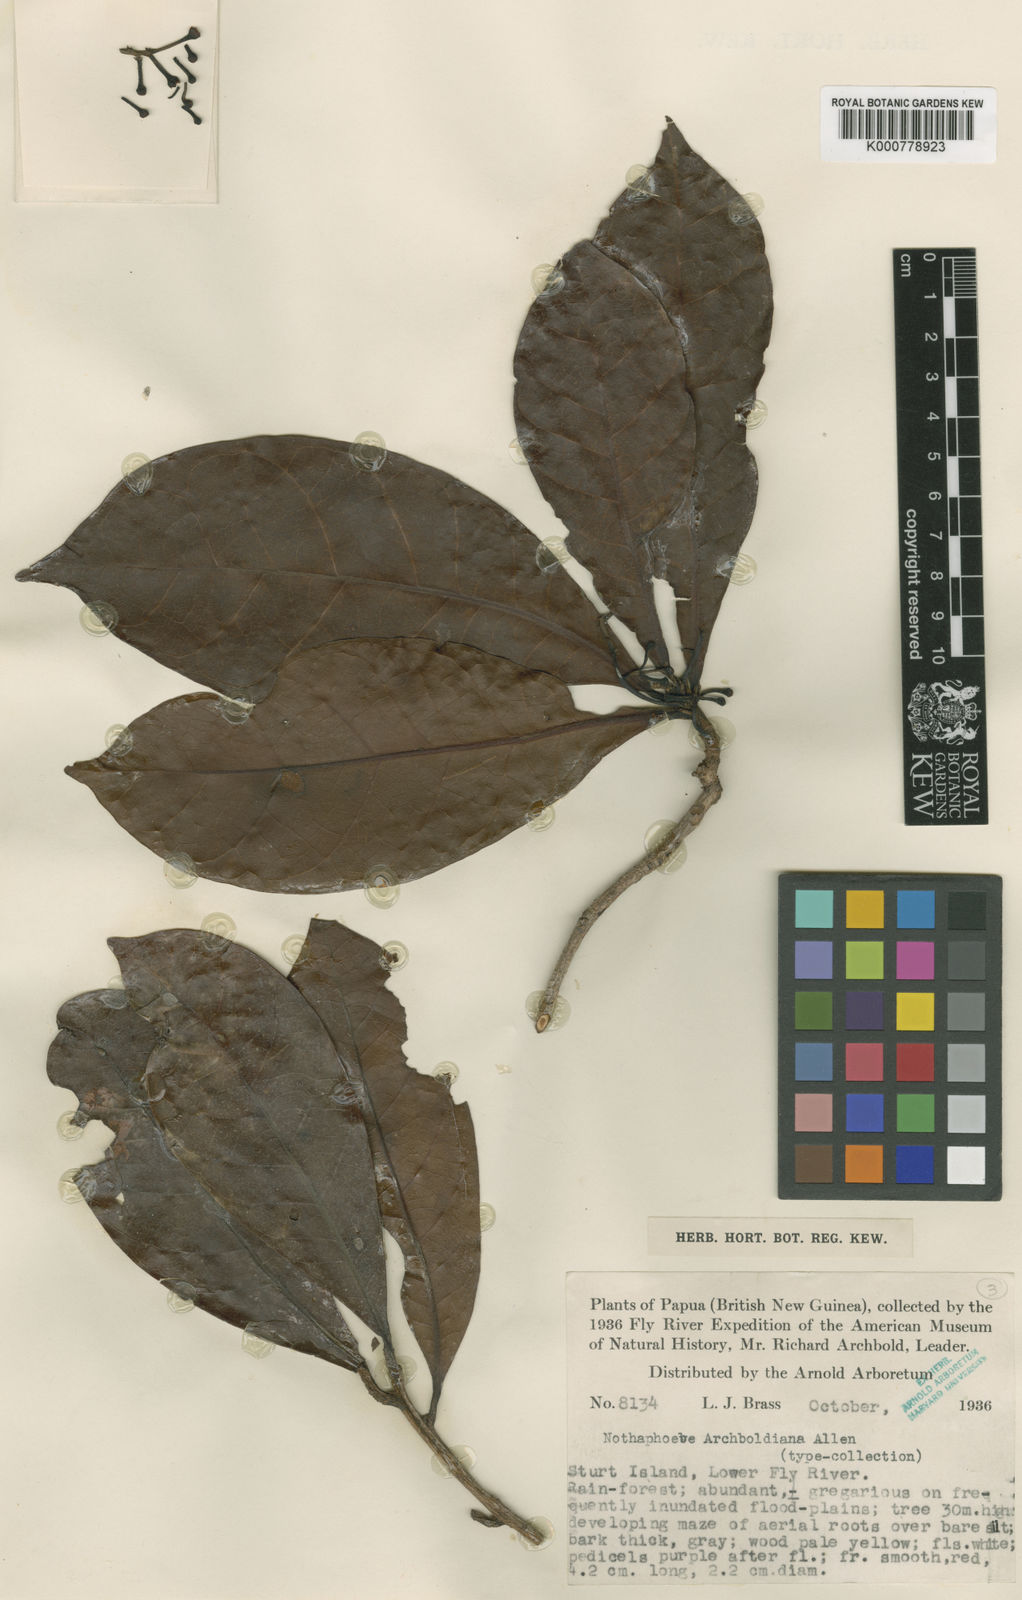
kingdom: Plantae
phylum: Tracheophyta
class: Magnoliopsida
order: Laurales
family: Lauraceae
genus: Nothaphoebe
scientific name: Nothaphoebe archboldiana
